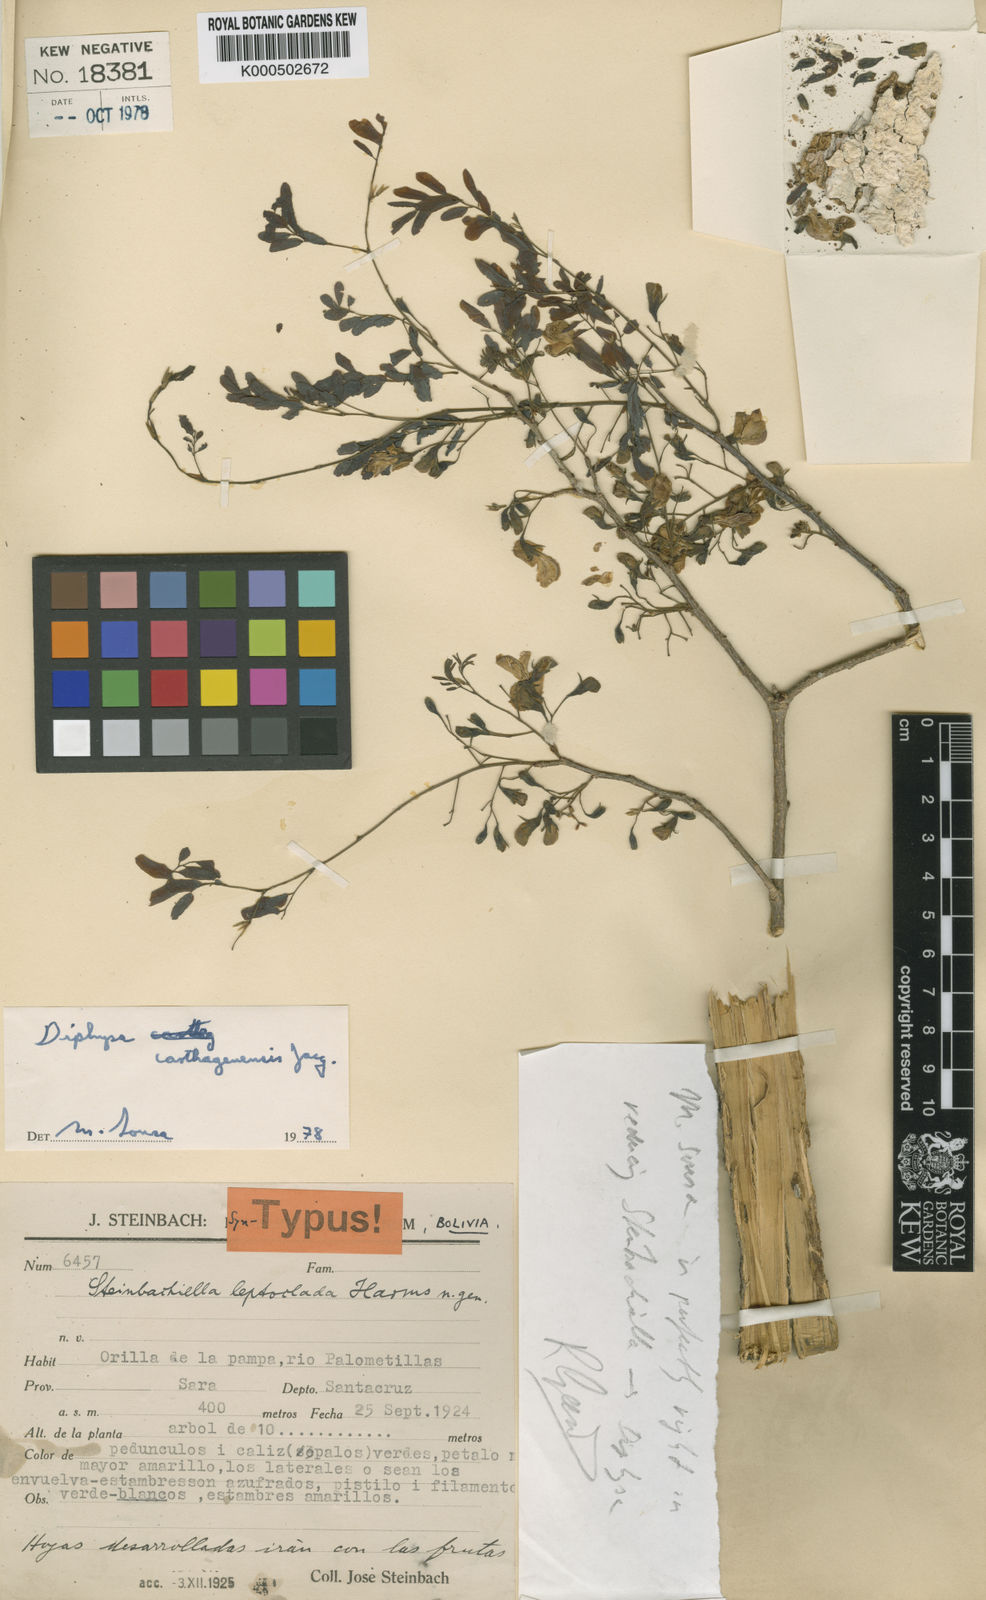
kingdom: Plantae
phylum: Tracheophyta
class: Magnoliopsida
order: Fabales
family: Fabaceae
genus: Diphysa
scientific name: Diphysa carthagenensis
